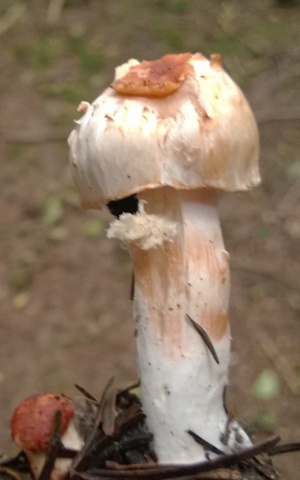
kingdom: Fungi
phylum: Basidiomycota
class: Agaricomycetes
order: Agaricales
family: Inocybaceae
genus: Inocybe
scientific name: Inocybe
